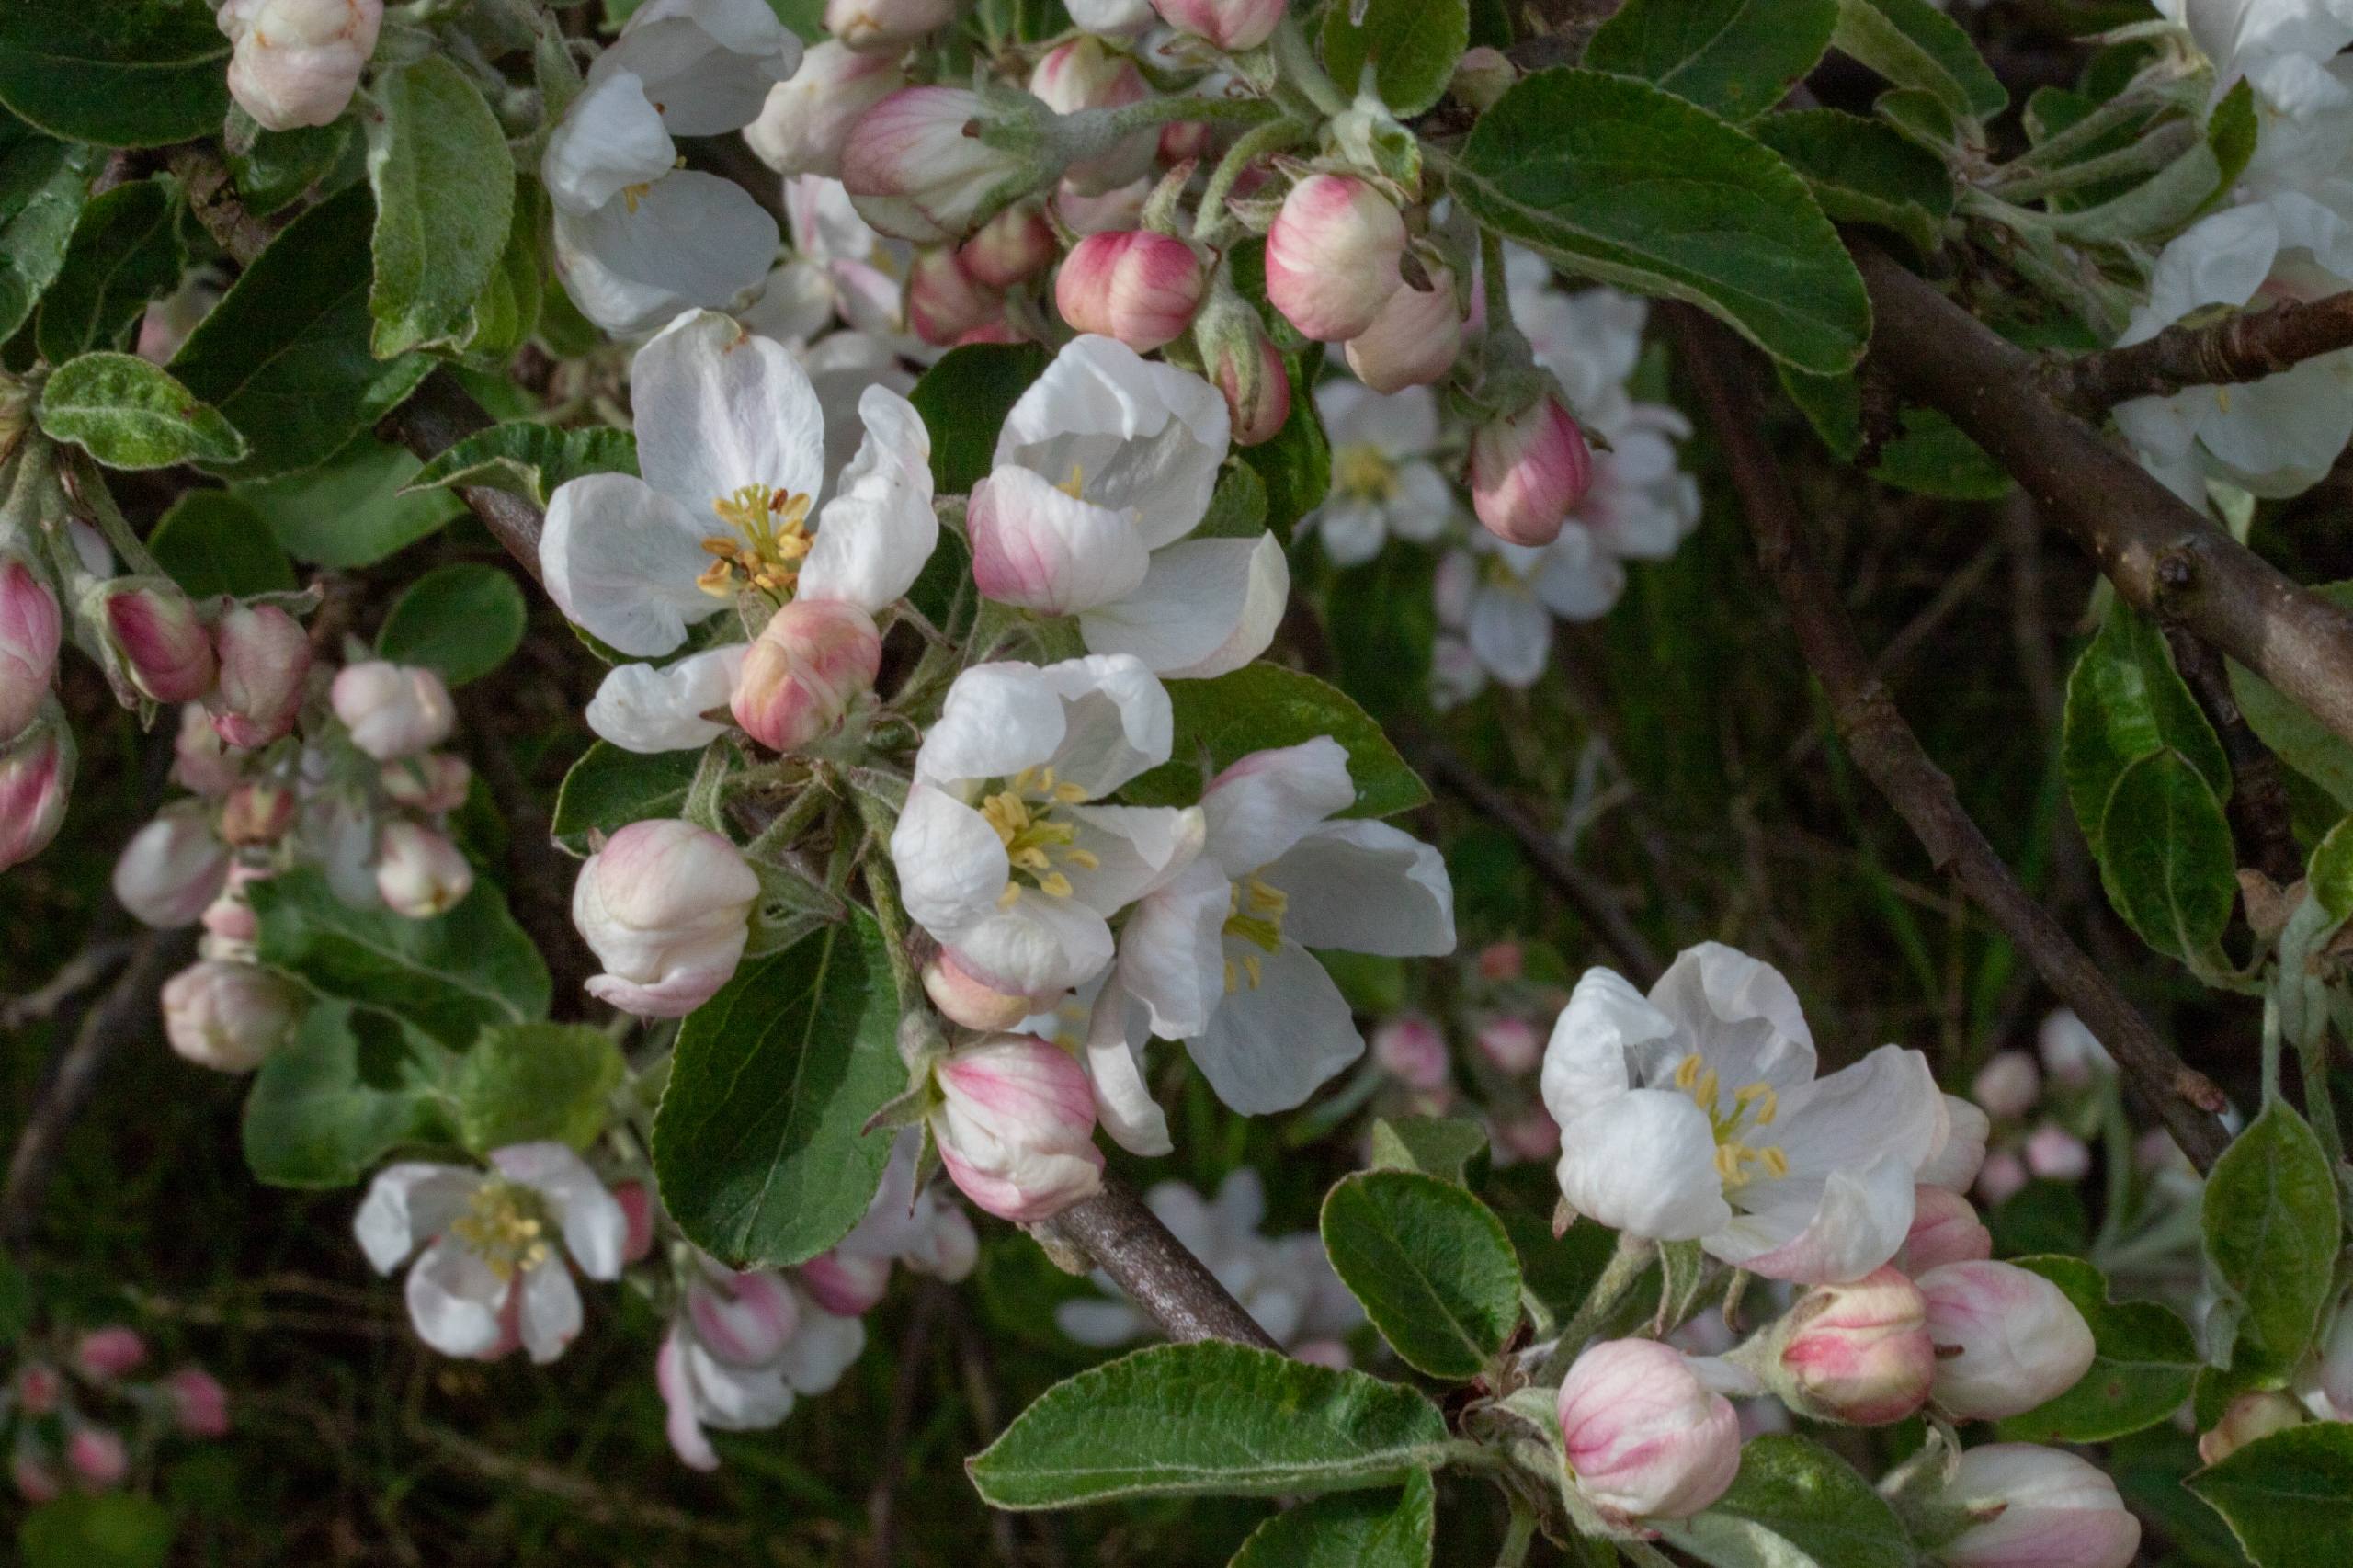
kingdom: Plantae
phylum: Tracheophyta
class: Magnoliopsida
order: Rosales
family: Rosaceae
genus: Malus
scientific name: Malus domestica
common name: Sød-æble
